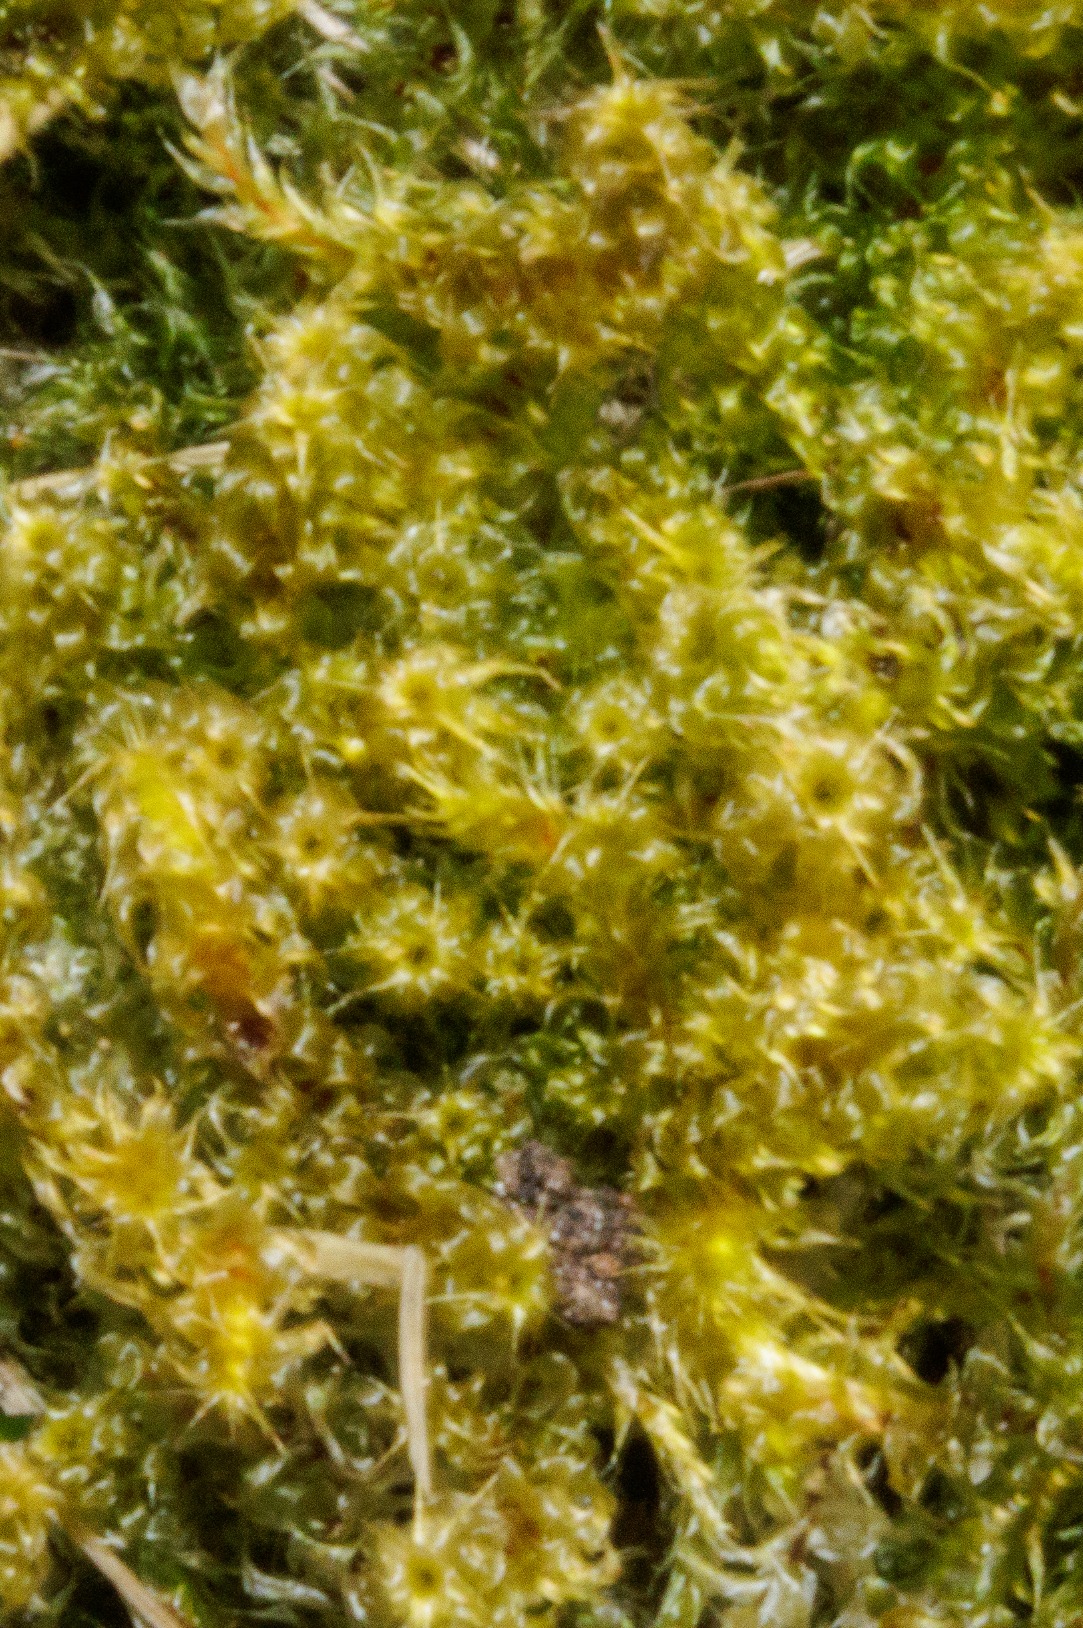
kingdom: Plantae
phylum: Bryophyta
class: Bryopsida
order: Hypnales
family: Hylocomiaceae
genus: Rhytidiadelphus
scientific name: Rhytidiadelphus squarrosus
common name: Plæne-kransemos
